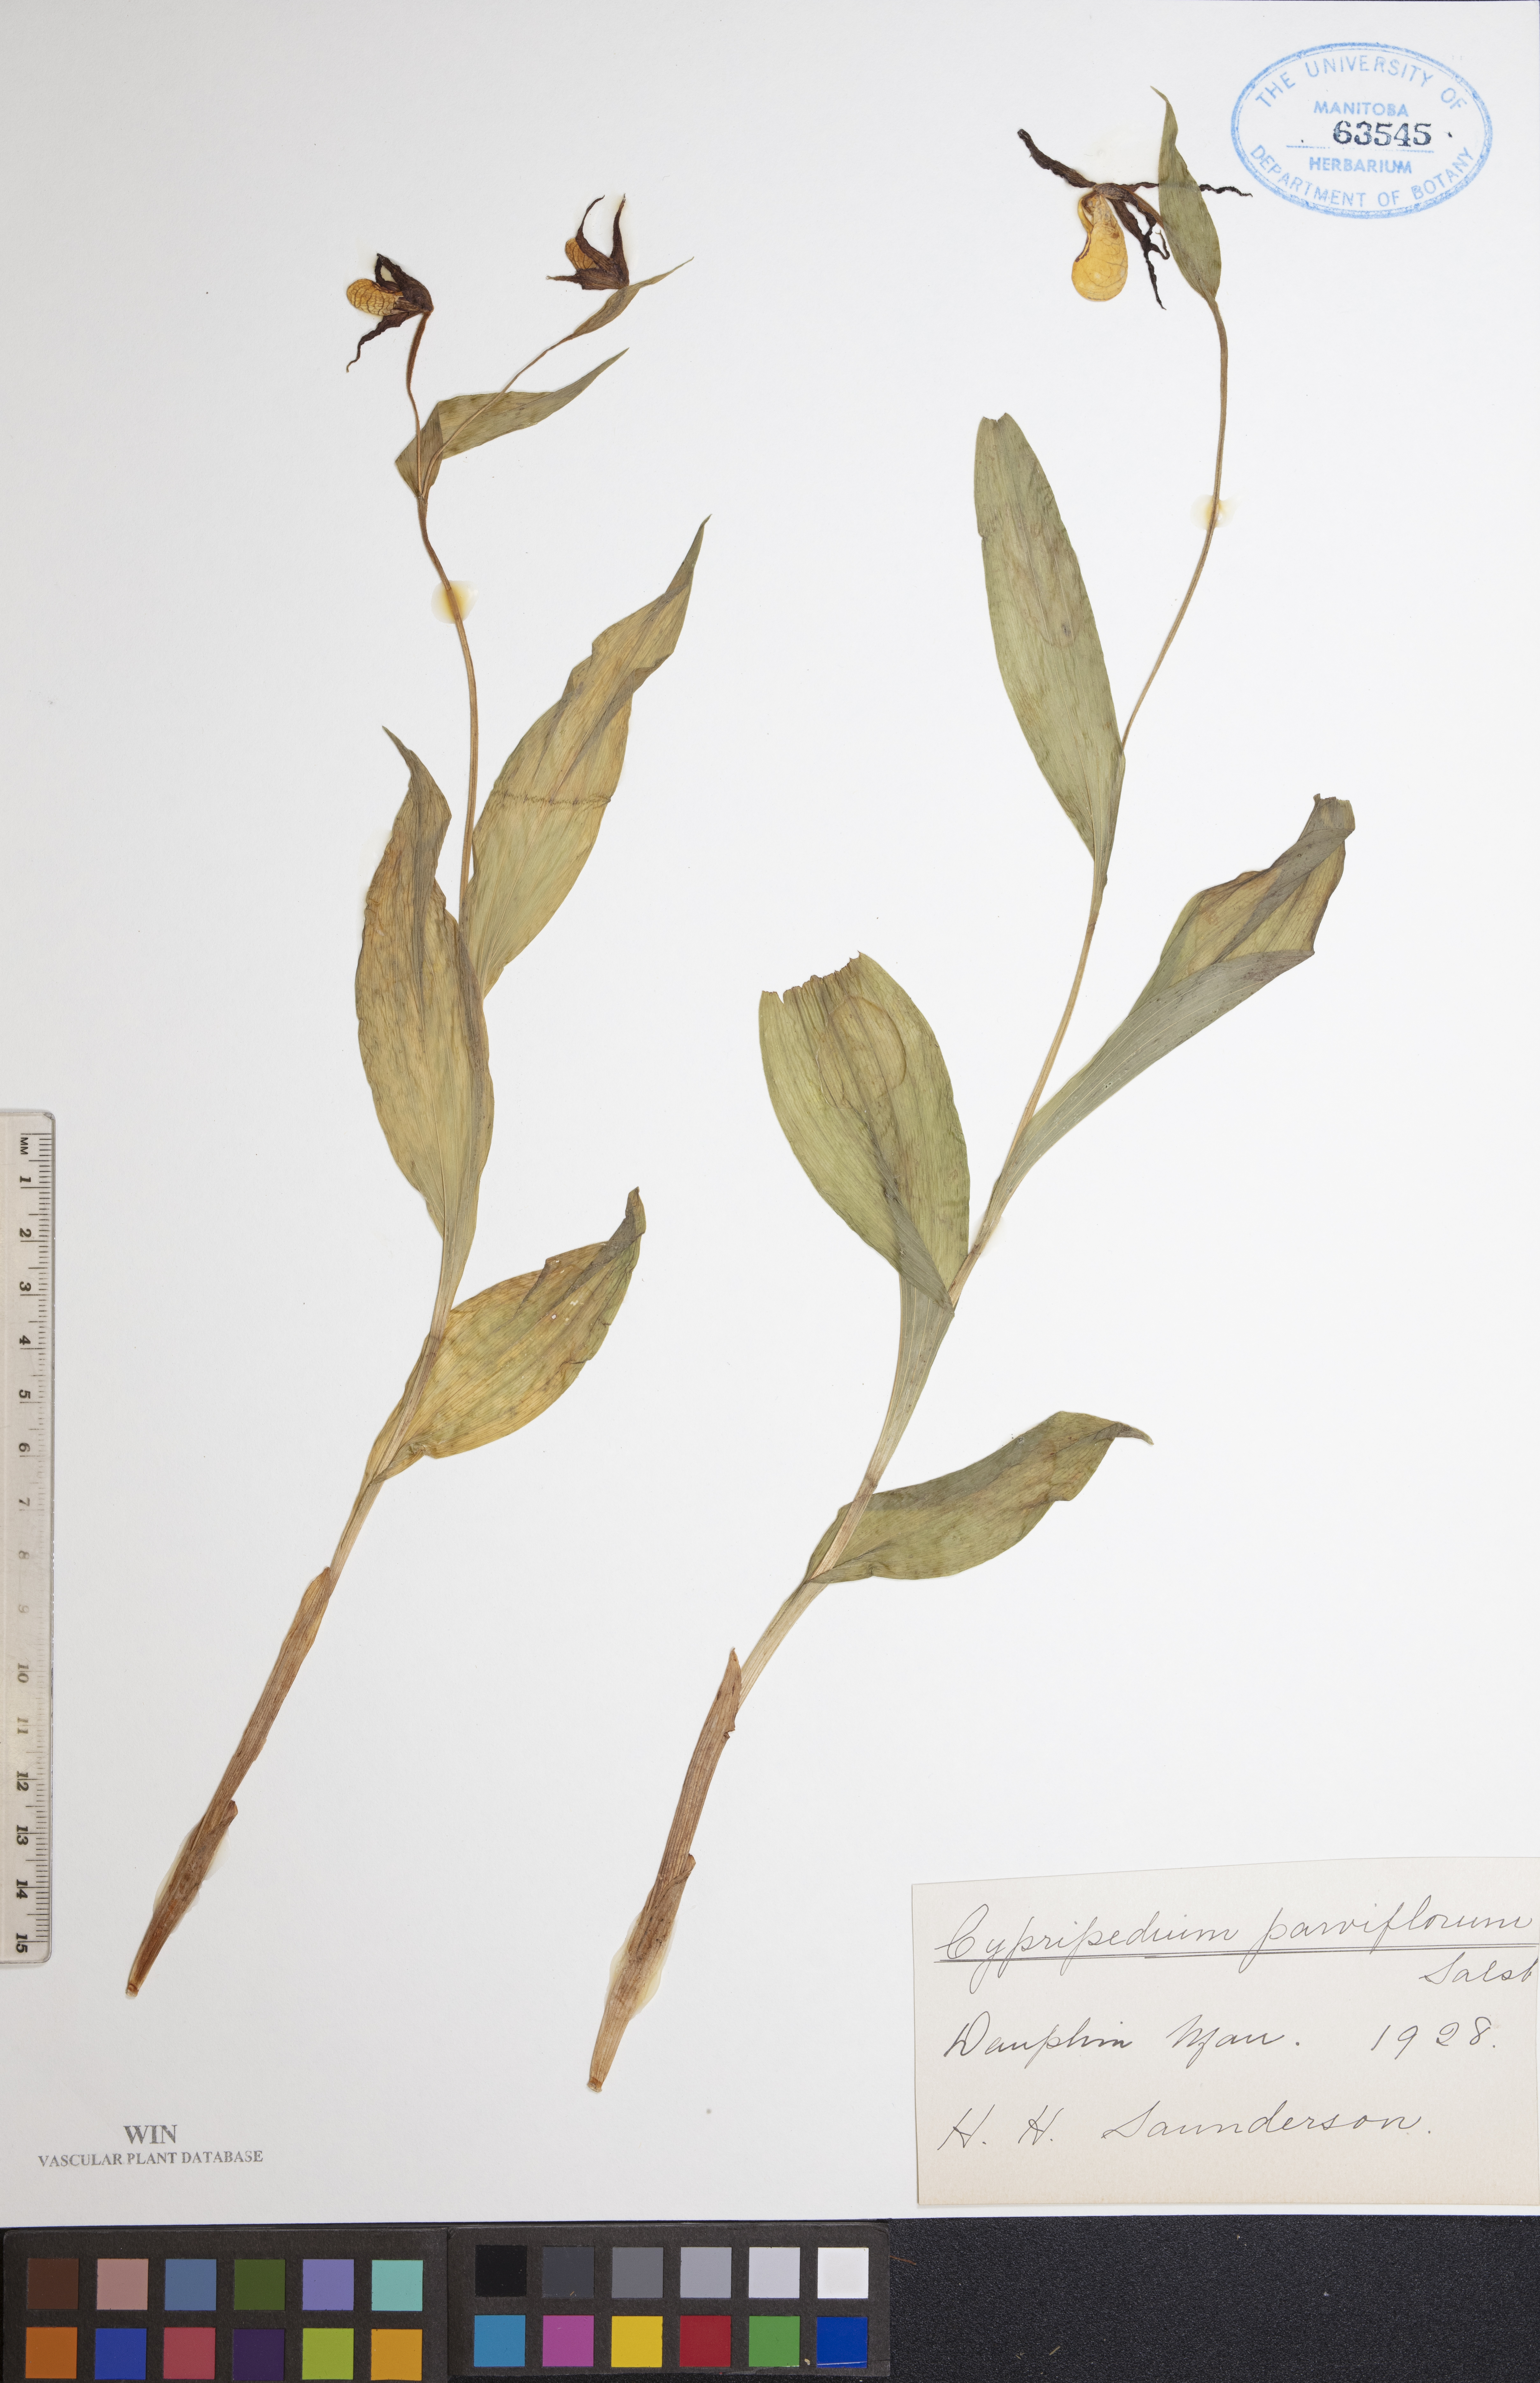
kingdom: Plantae
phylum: Tracheophyta
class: Liliopsida
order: Asparagales
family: Orchidaceae
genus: Cypripedium
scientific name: Cypripedium parviflorum
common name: American yellow lady's-slipper
